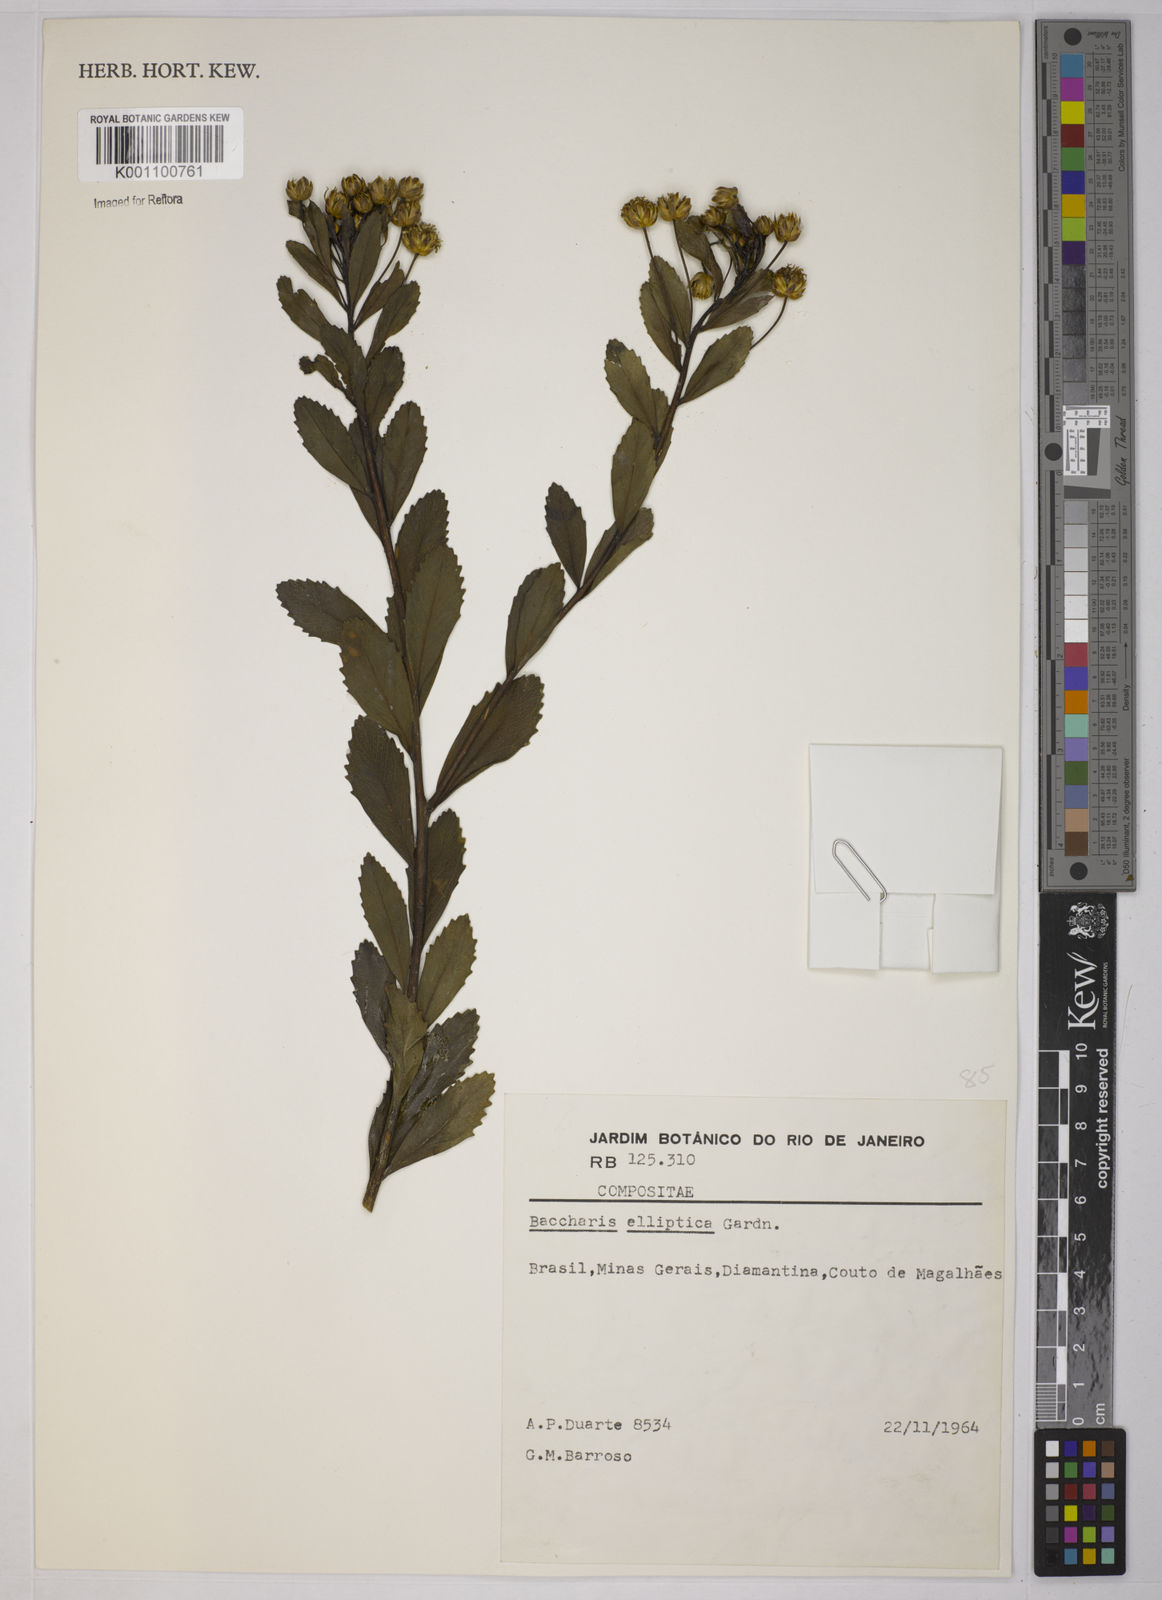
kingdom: Plantae
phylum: Tracheophyta
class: Magnoliopsida
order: Asterales
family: Asteraceae
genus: Baccharis
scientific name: Baccharis elliptica
